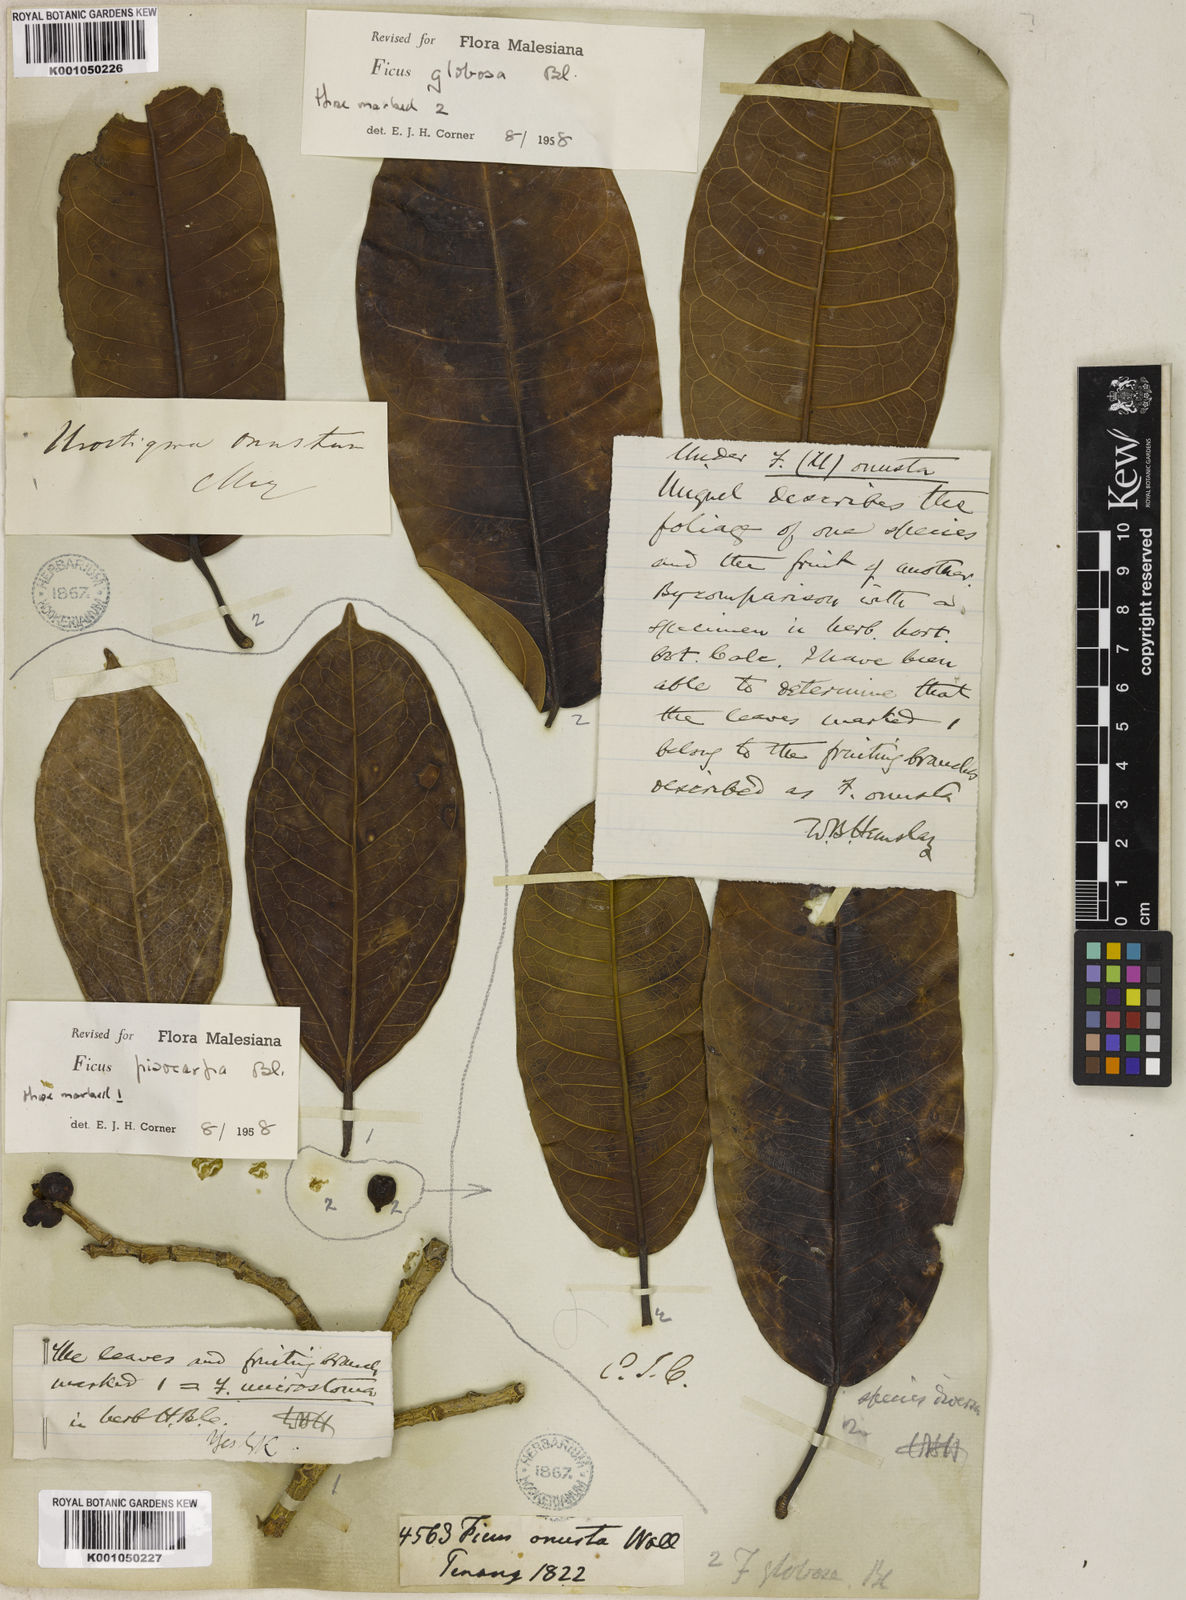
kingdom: Plantae
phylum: Tracheophyta
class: Magnoliopsida
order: Rosales
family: Moraceae
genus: Ficus
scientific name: Ficus globosa
